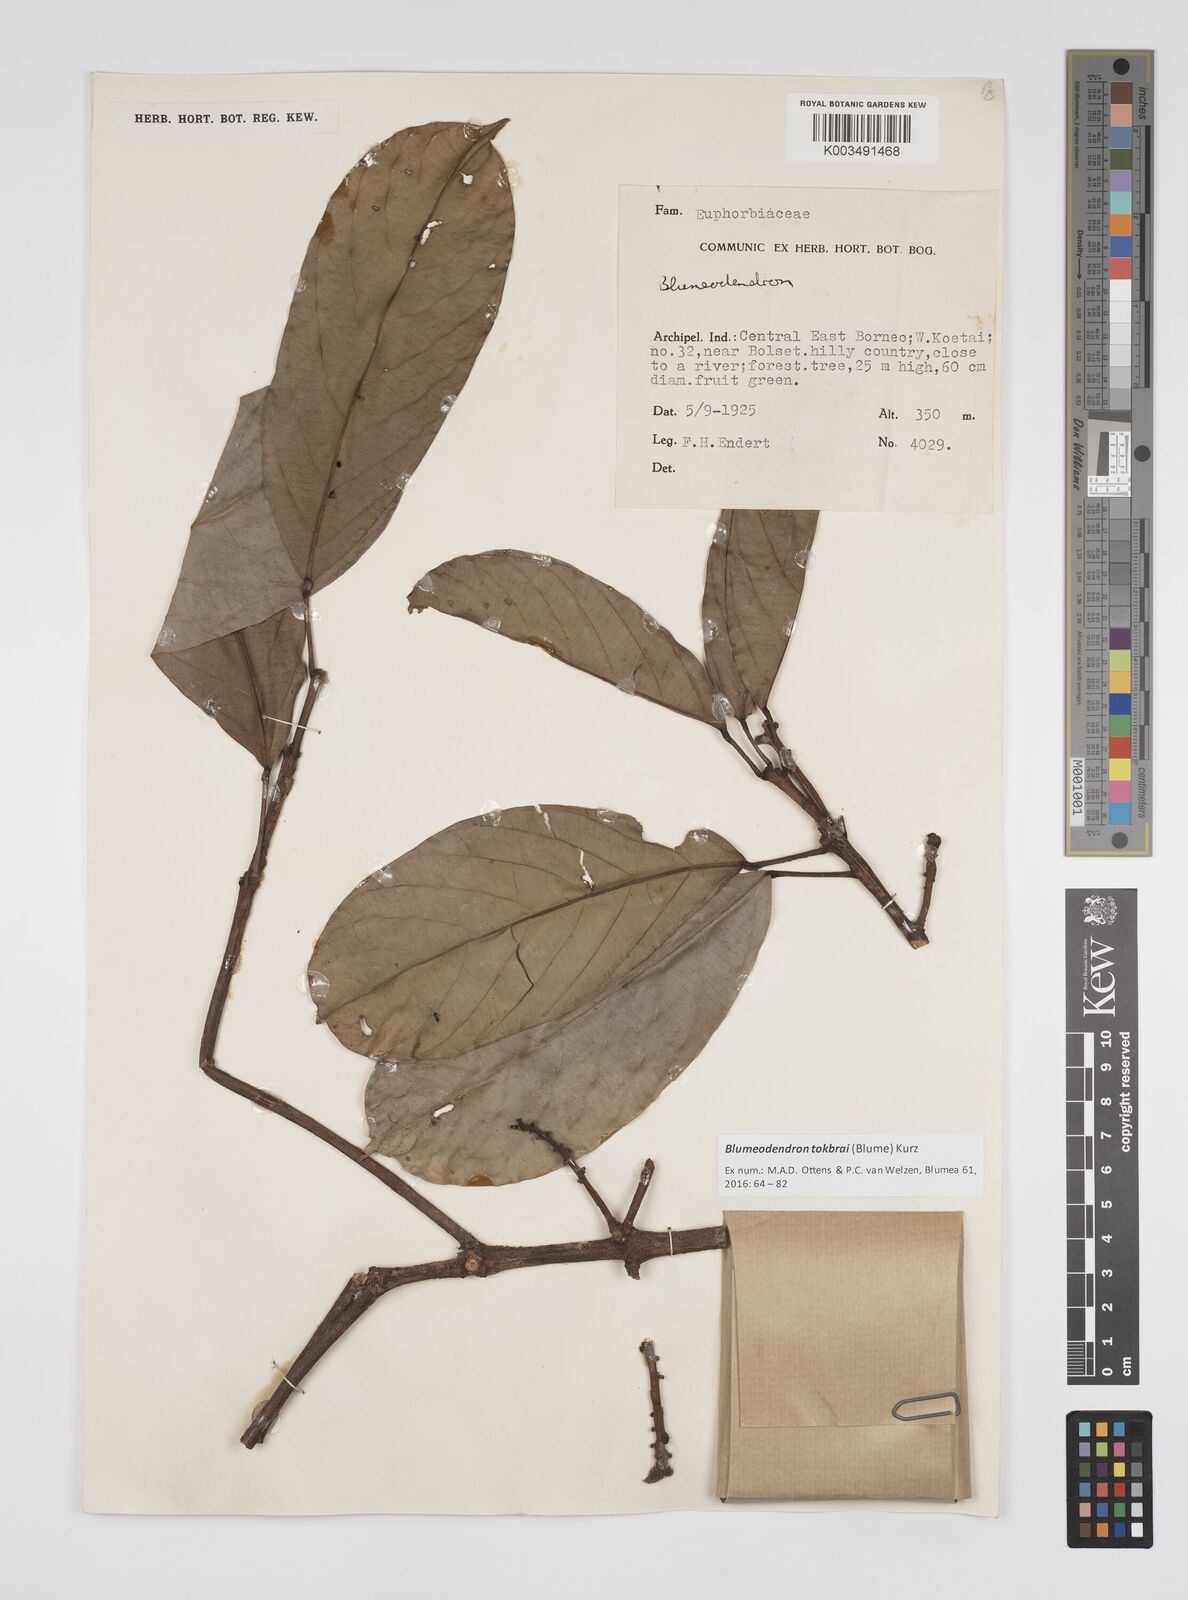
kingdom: Plantae
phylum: Tracheophyta
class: Magnoliopsida
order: Malpighiales
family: Euphorbiaceae
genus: Blumeodendron
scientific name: Blumeodendron tokbrai
